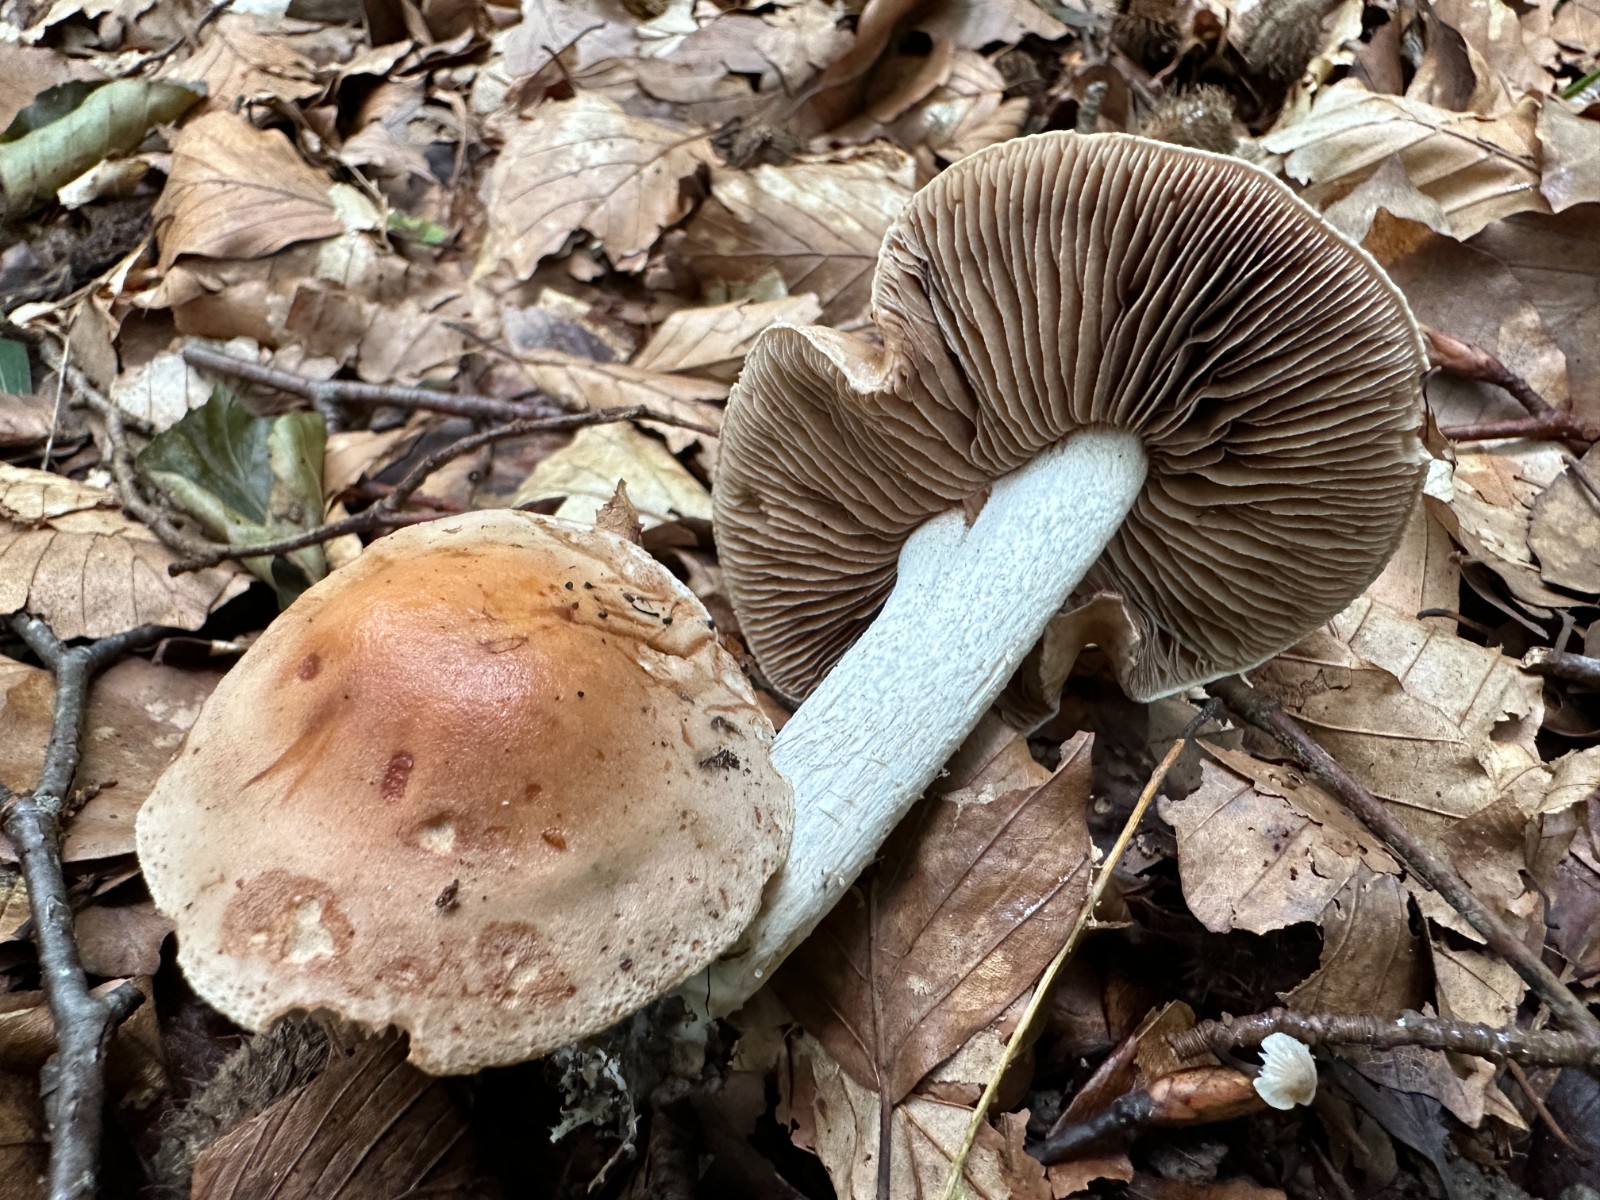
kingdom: Fungi
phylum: Basidiomycota
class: Agaricomycetes
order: Agaricales
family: Hymenogastraceae
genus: Hebeloma
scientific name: Hebeloma sinapizans
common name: ræddike-tåreblad
